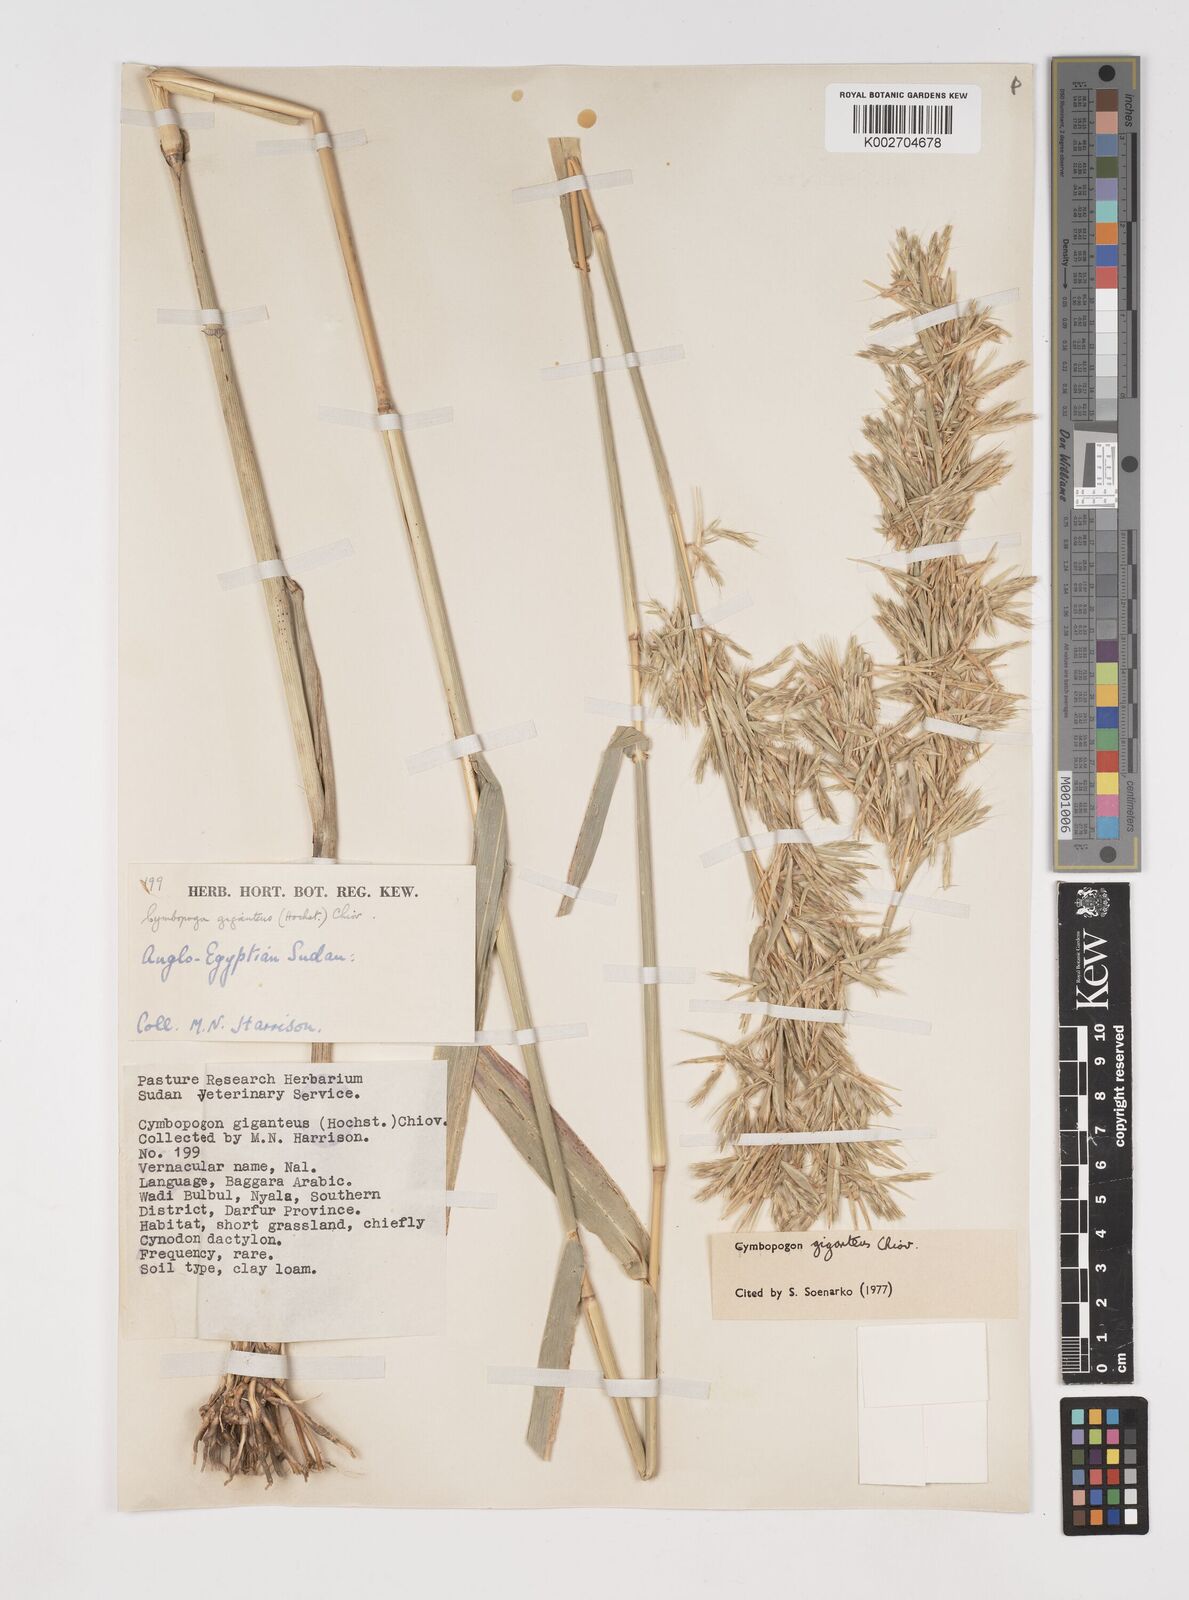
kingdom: Plantae
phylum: Tracheophyta
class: Liliopsida
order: Poales
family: Poaceae
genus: Cymbopogon
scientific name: Cymbopogon giganteus
